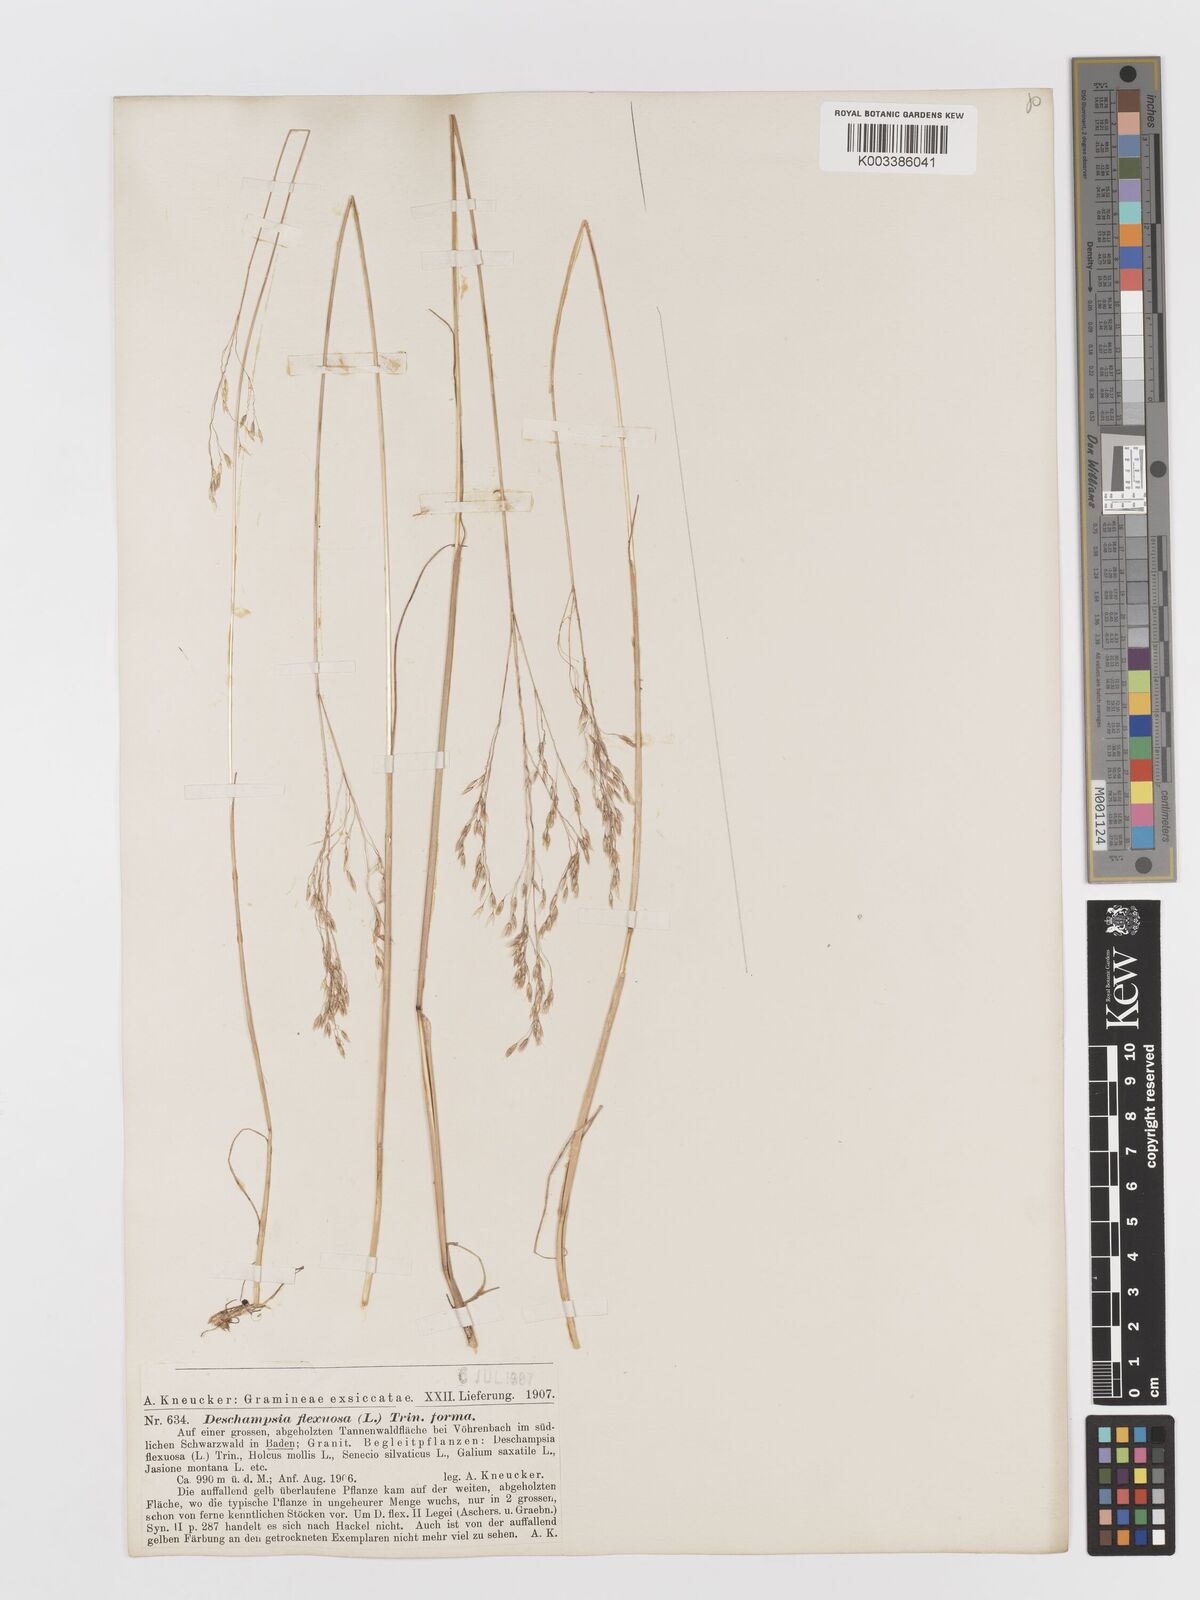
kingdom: Plantae
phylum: Tracheophyta
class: Liliopsida
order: Poales
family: Poaceae
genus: Avenella
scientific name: Avenella flexuosa
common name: Wavy hairgrass
